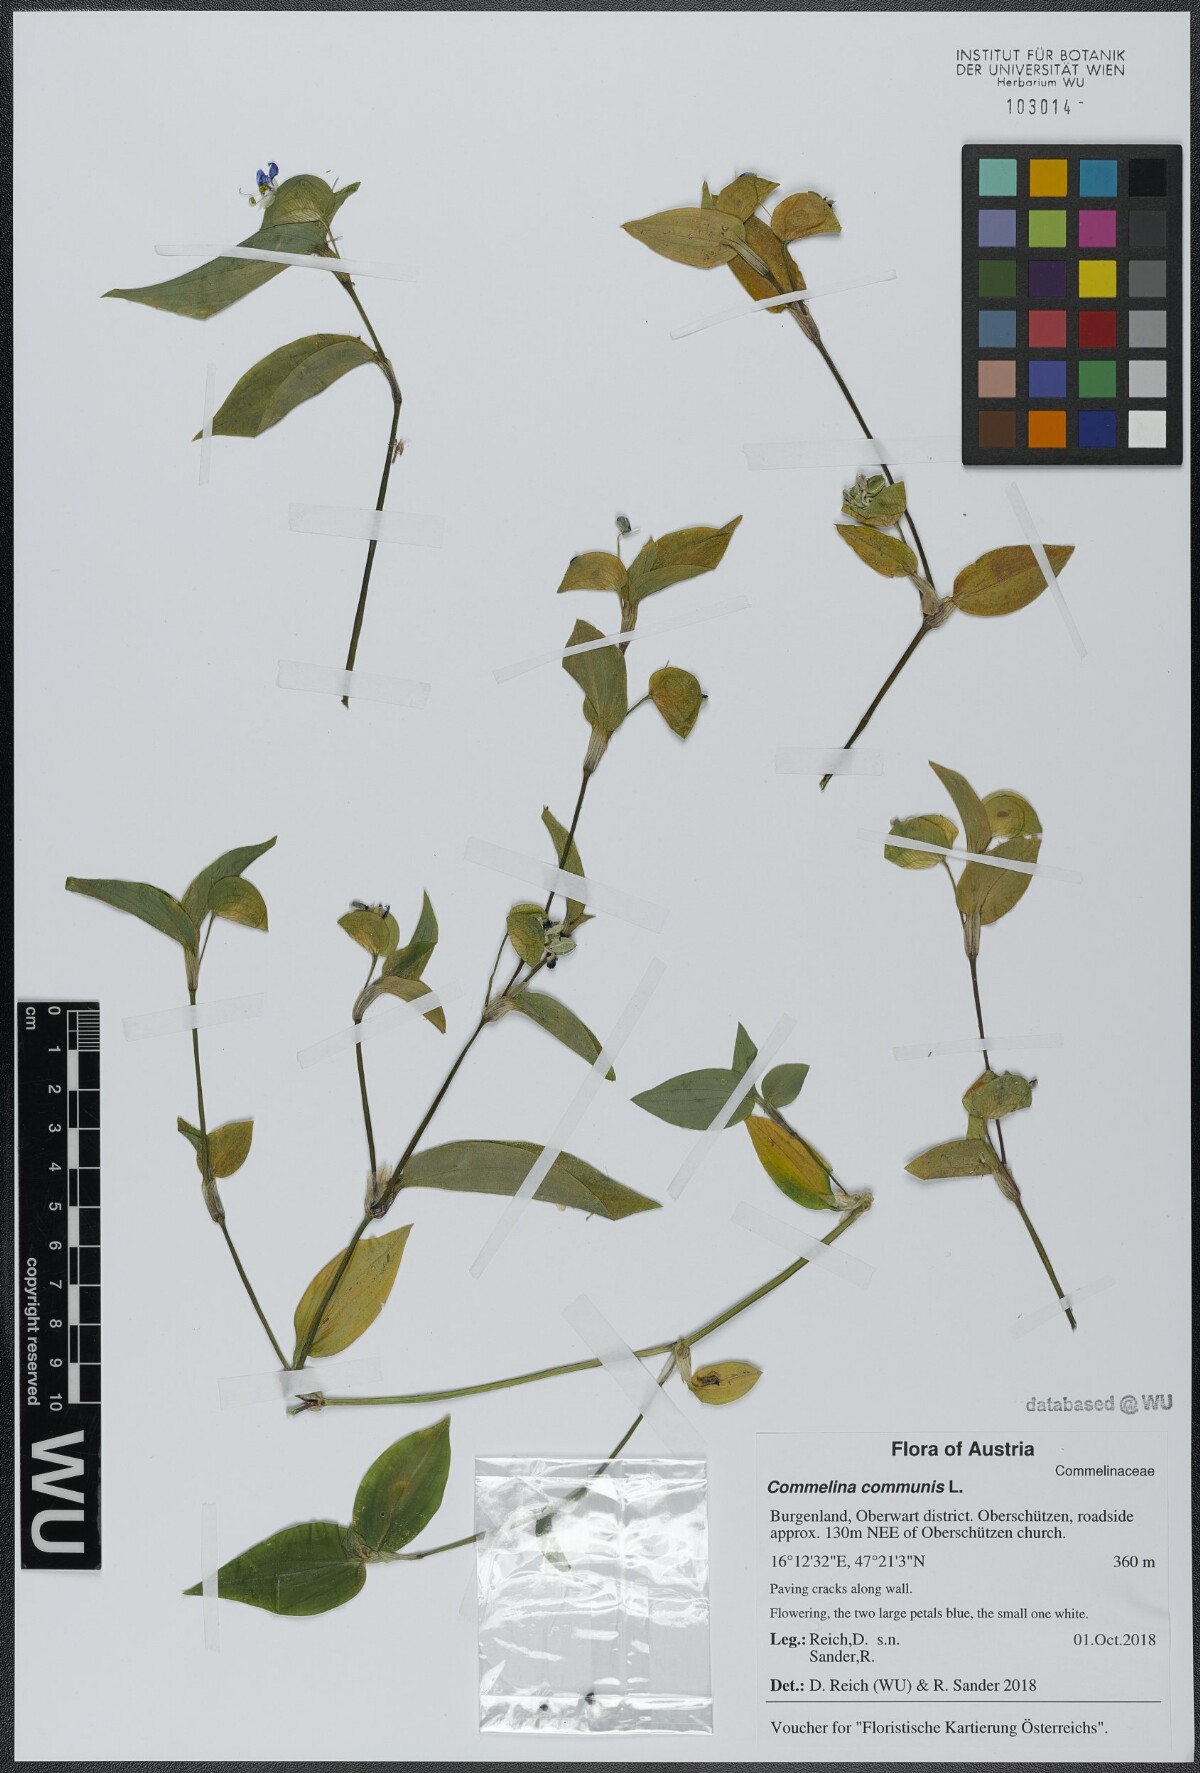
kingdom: Plantae
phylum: Tracheophyta
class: Liliopsida
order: Commelinales
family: Commelinaceae
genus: Commelina
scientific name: Commelina communis
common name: Asiatic dayflower
